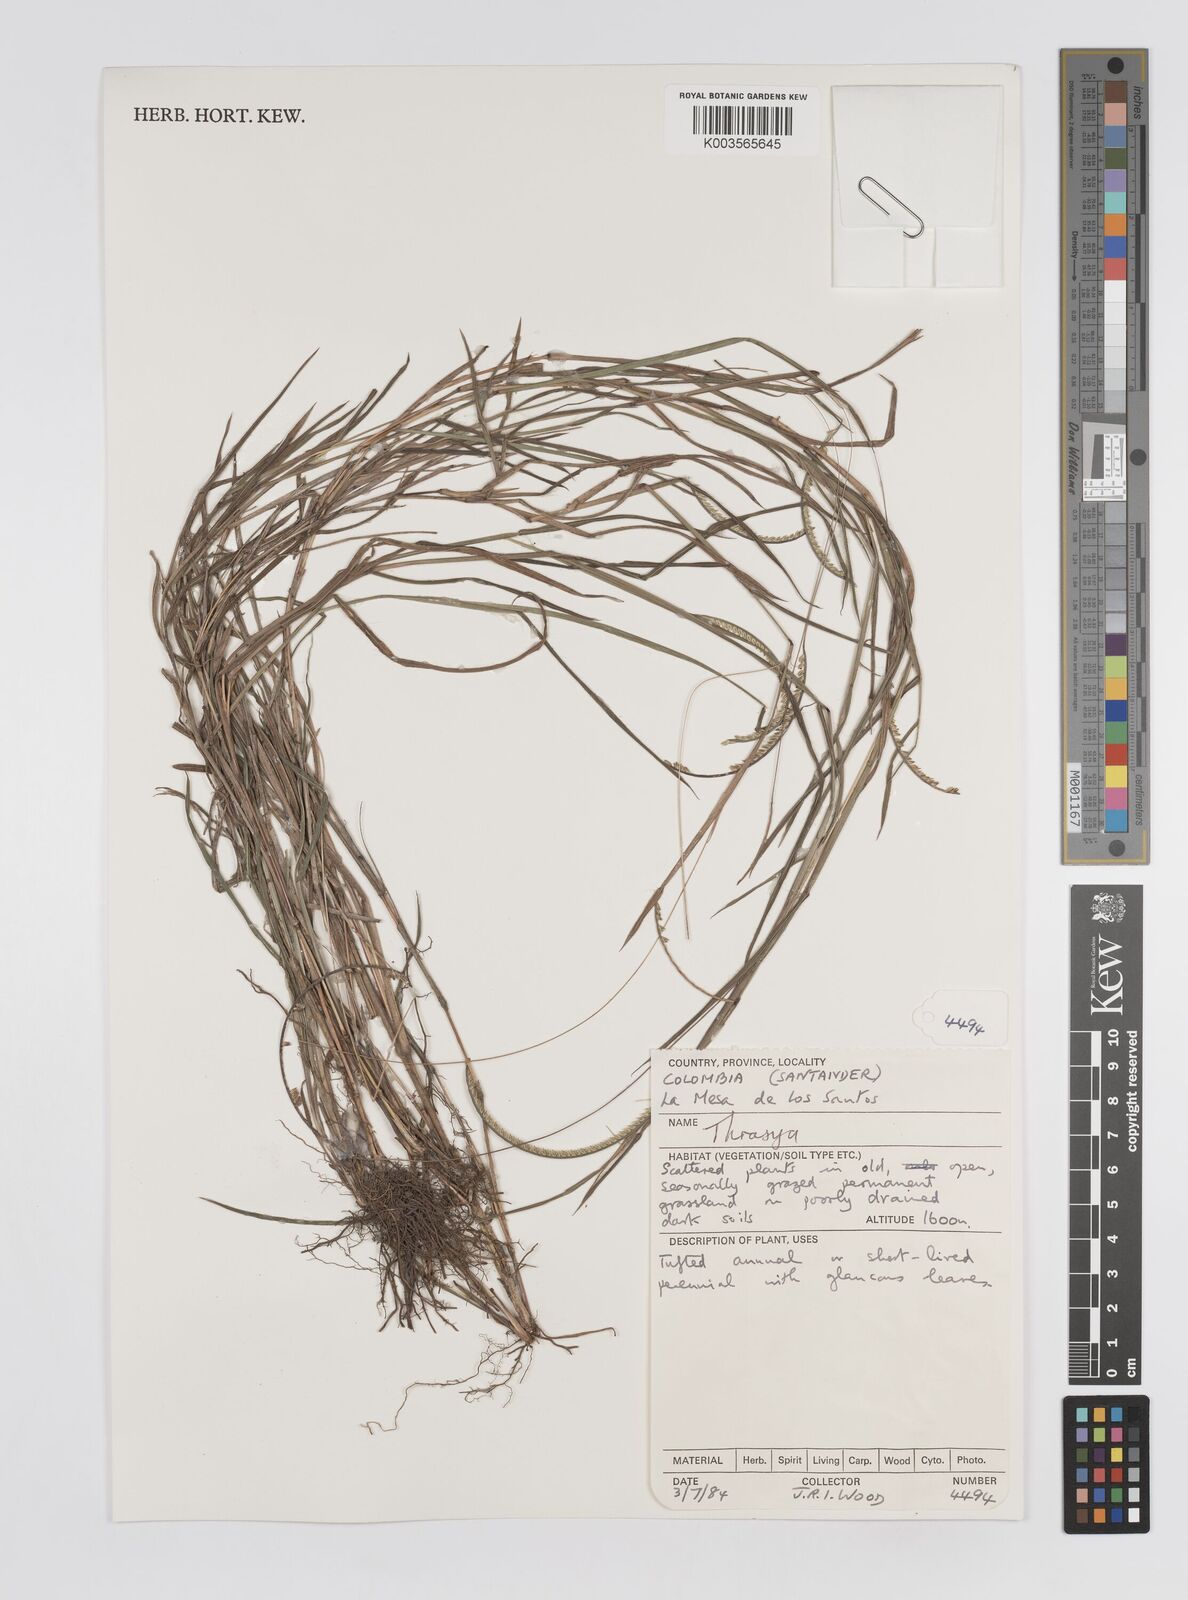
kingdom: Plantae
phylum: Tracheophyta
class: Liliopsida
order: Poales
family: Poaceae
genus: Paspalum
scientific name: Paspalum campylostachyum
